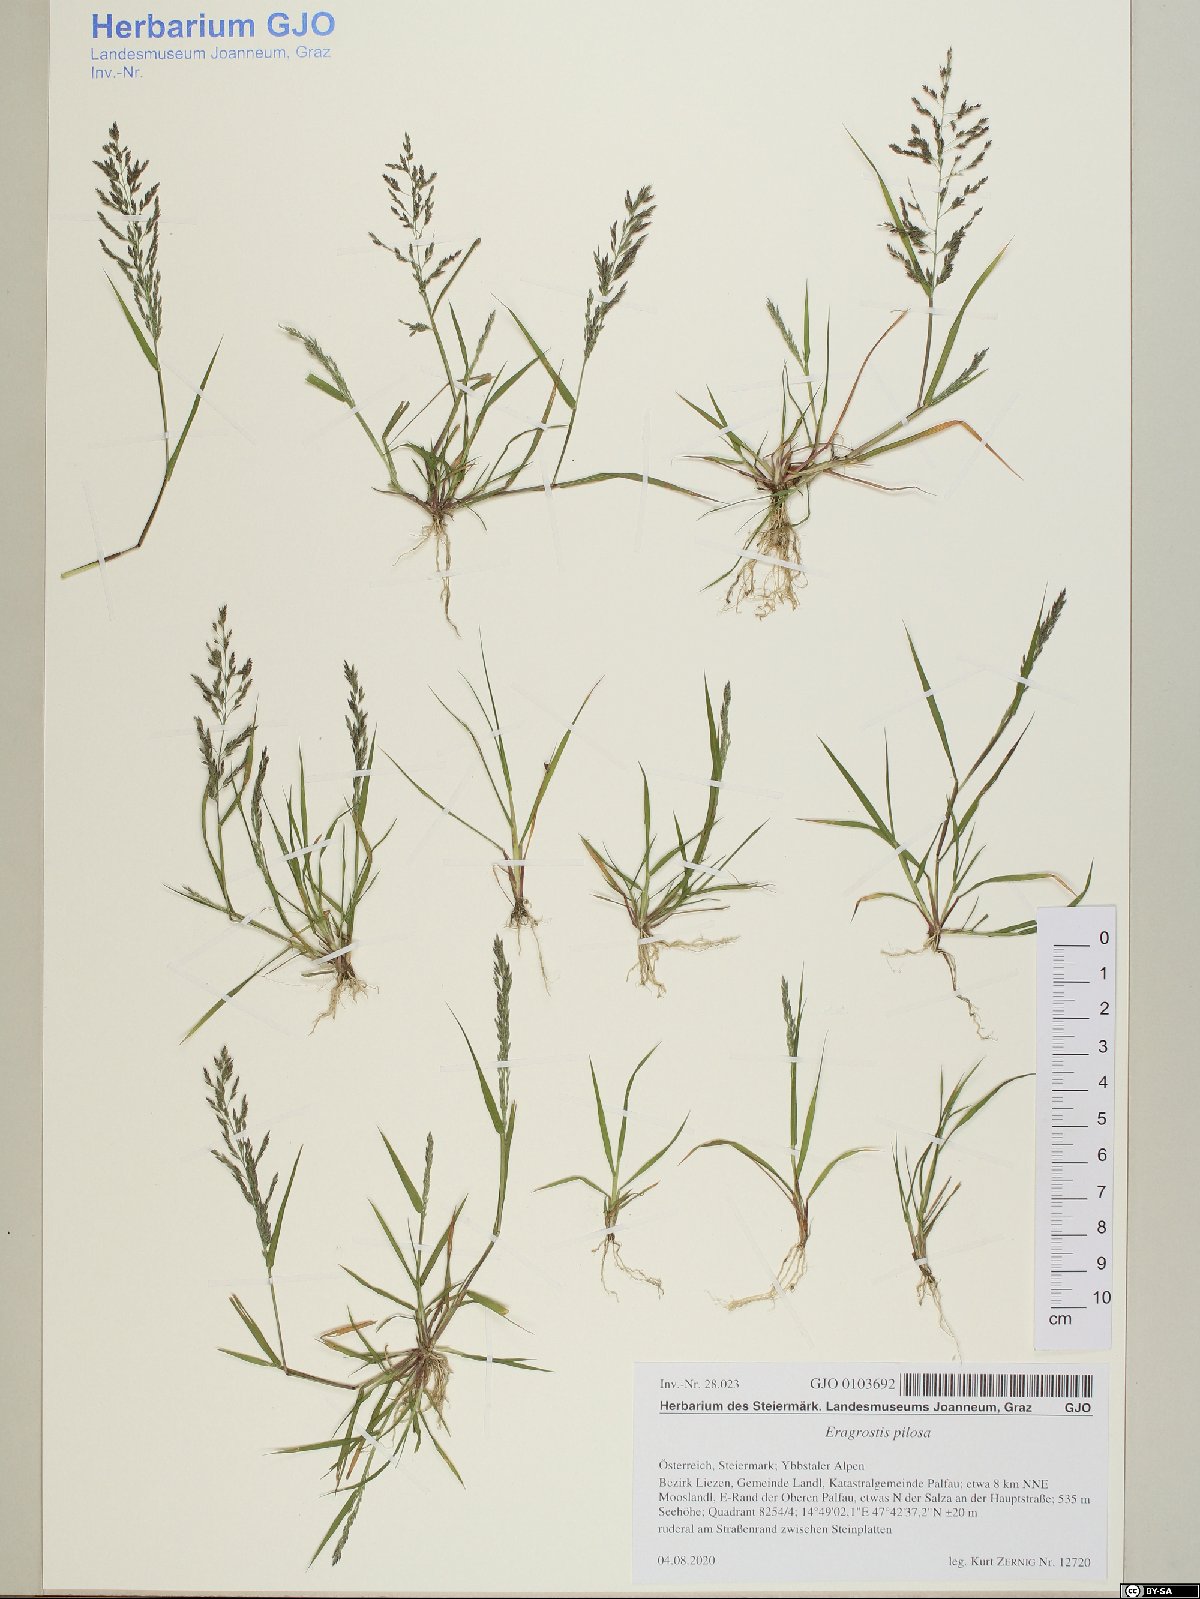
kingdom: Plantae
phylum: Tracheophyta
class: Liliopsida
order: Poales
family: Poaceae
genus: Eragrostis
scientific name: Eragrostis pilosa
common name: Indian lovegrass
